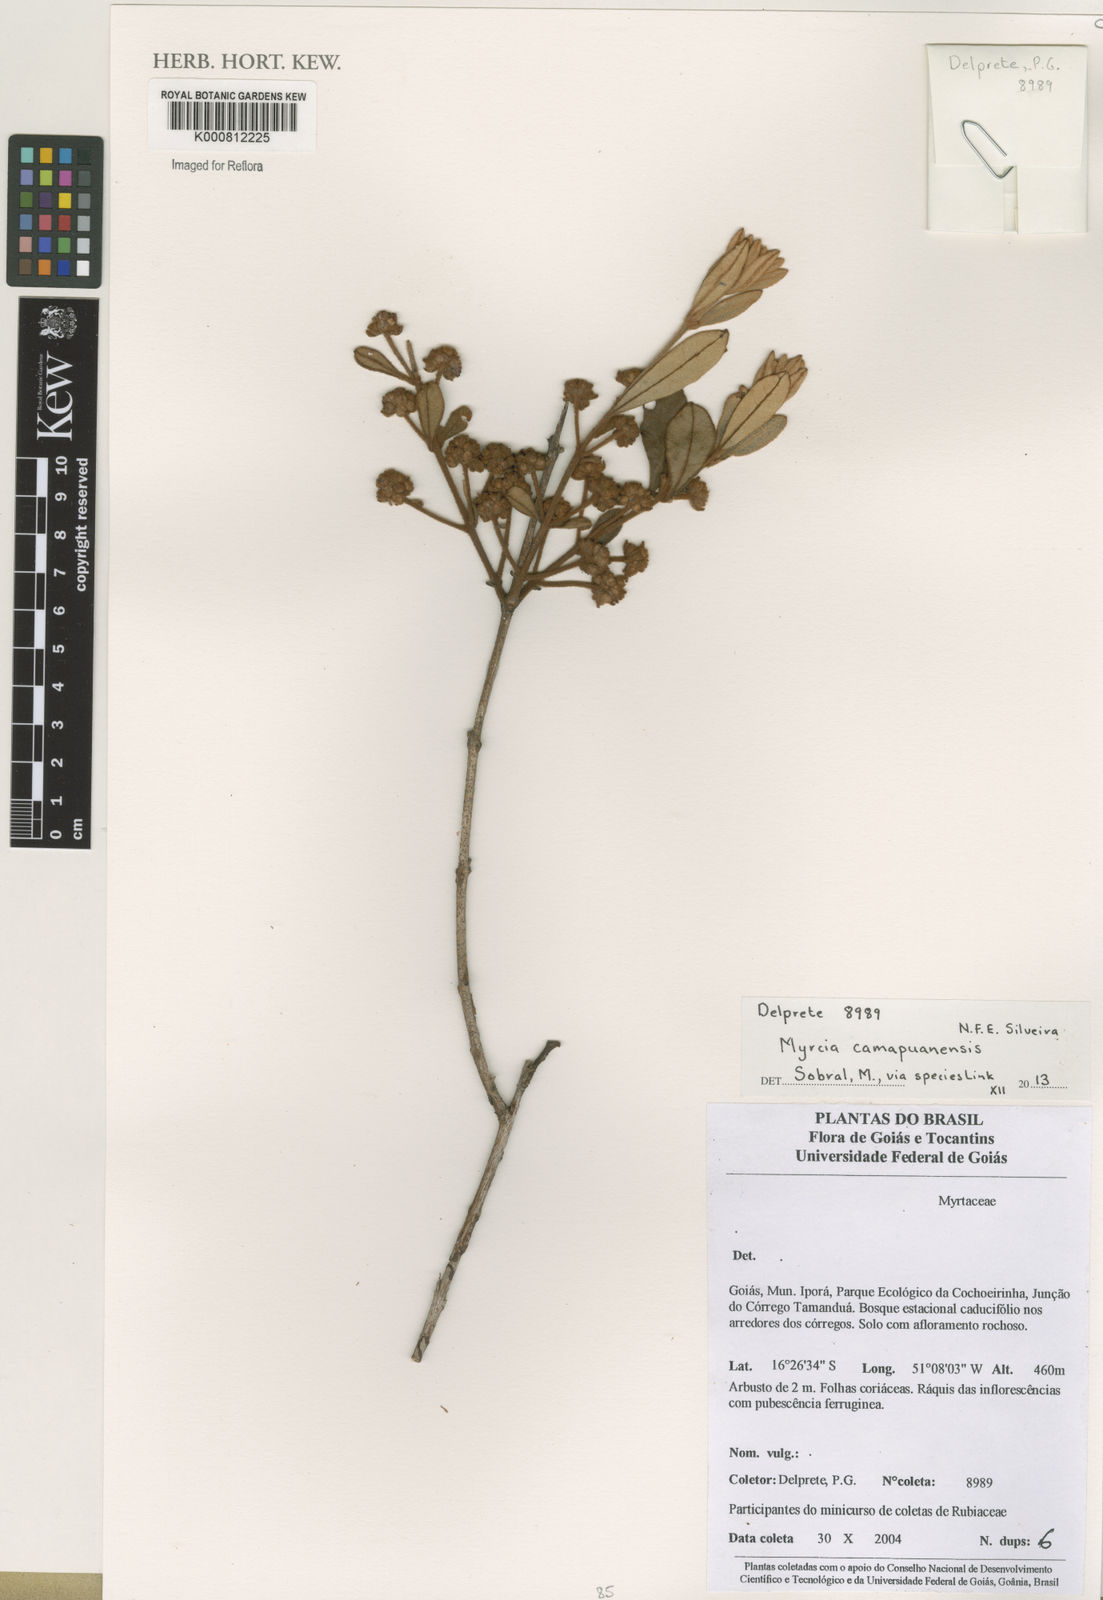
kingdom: Plantae
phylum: Tracheophyta
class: Magnoliopsida
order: Myrtales
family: Myrtaceae
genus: Myrcia
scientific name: Myrcia camapuanensis
